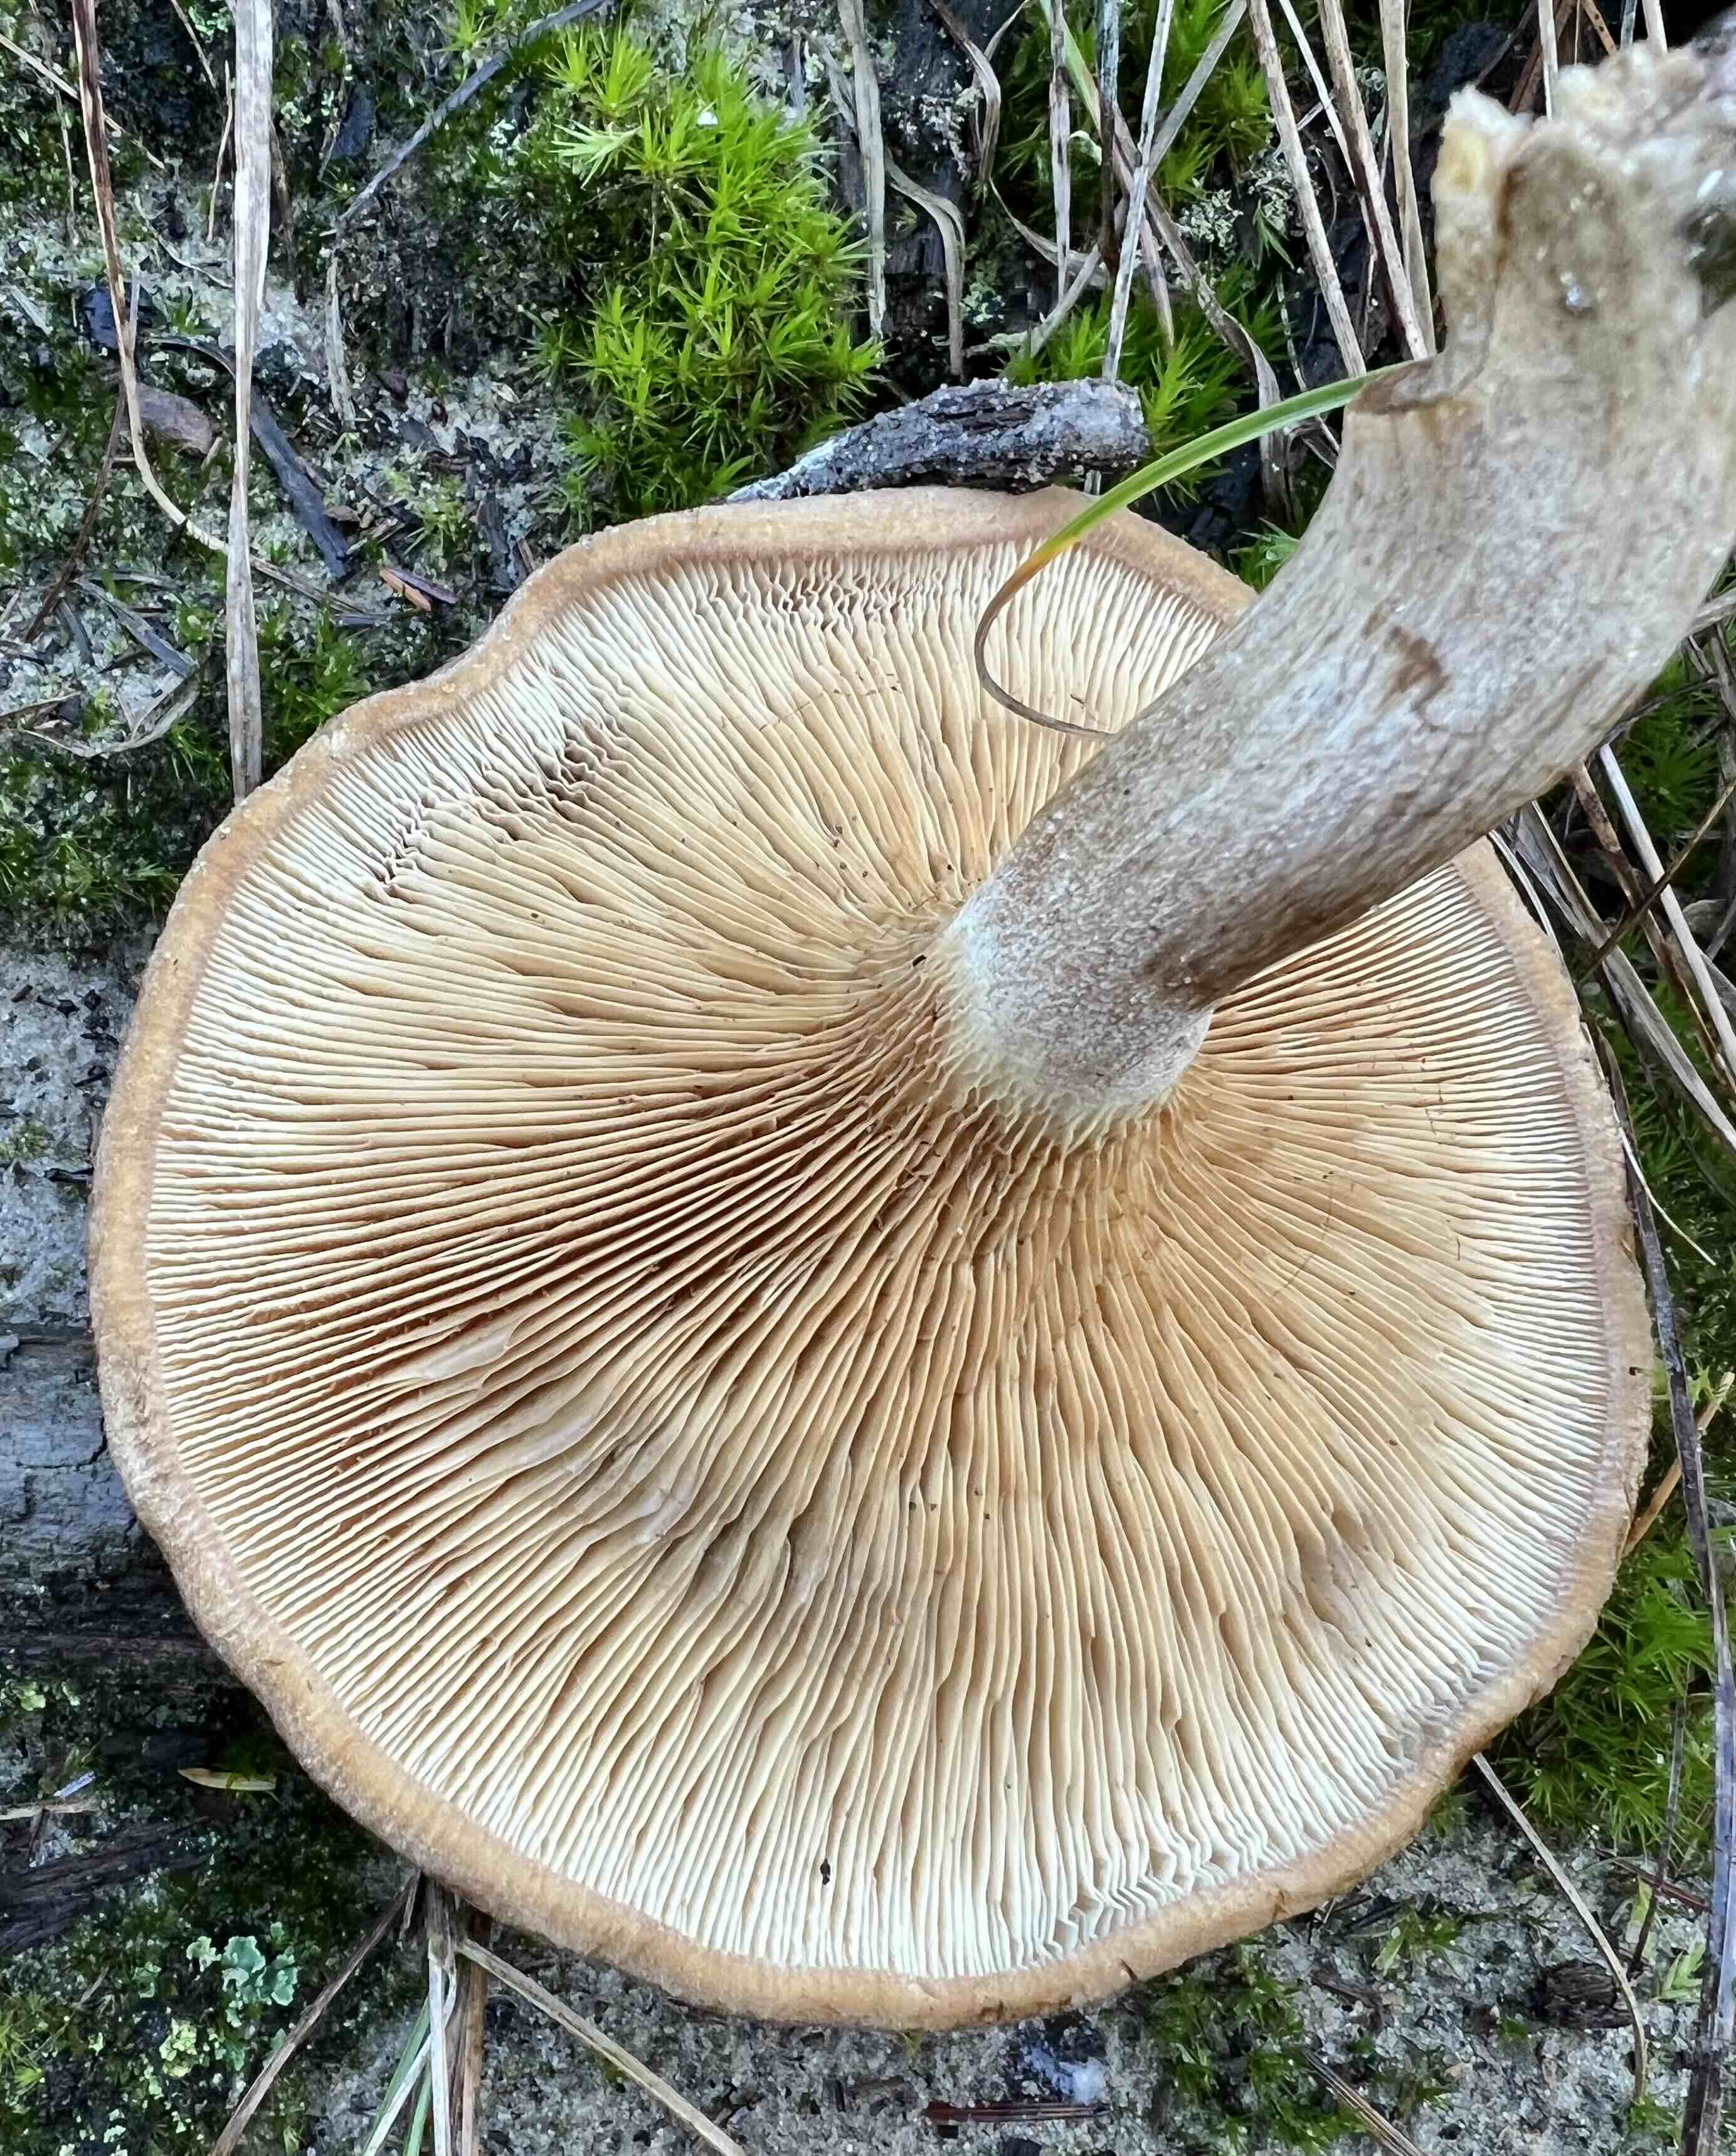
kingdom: Fungi
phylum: Basidiomycota
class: Agaricomycetes
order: Boletales
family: Paxillaceae
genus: Paxillus
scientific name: Paxillus involutus
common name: almindelig netbladhat
